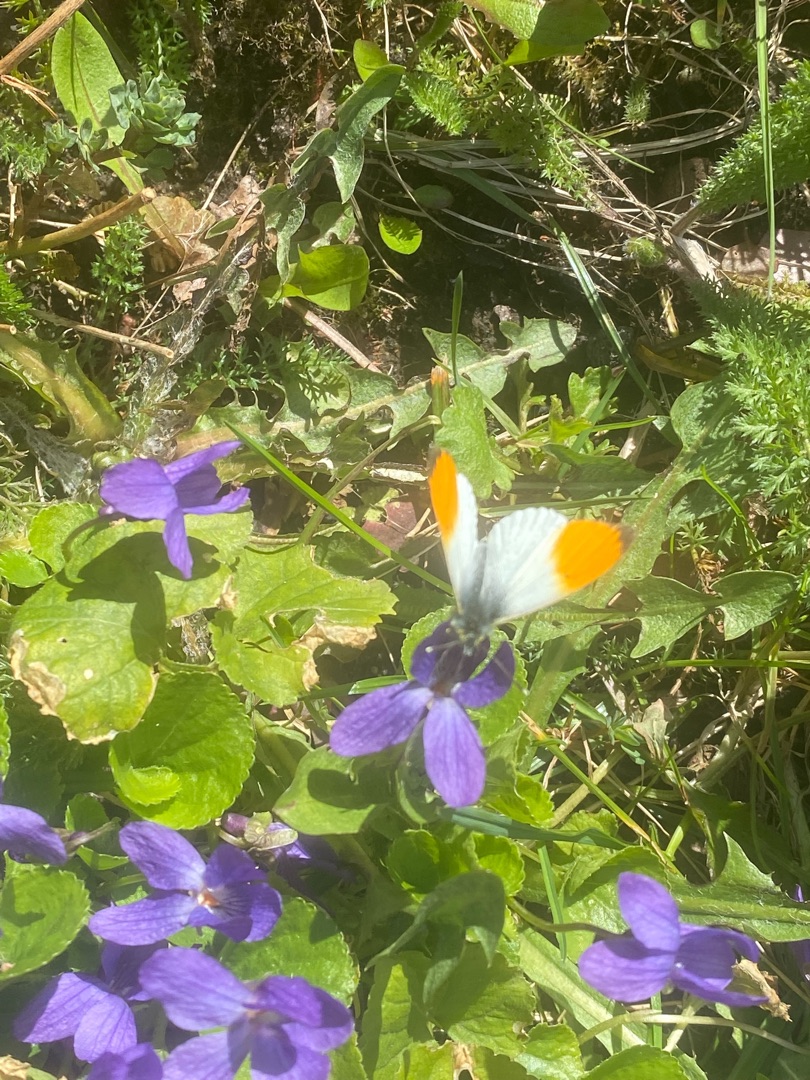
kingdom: Animalia
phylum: Arthropoda
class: Insecta
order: Lepidoptera
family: Pieridae
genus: Anthocharis
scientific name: Anthocharis cardamines
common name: Aurora
